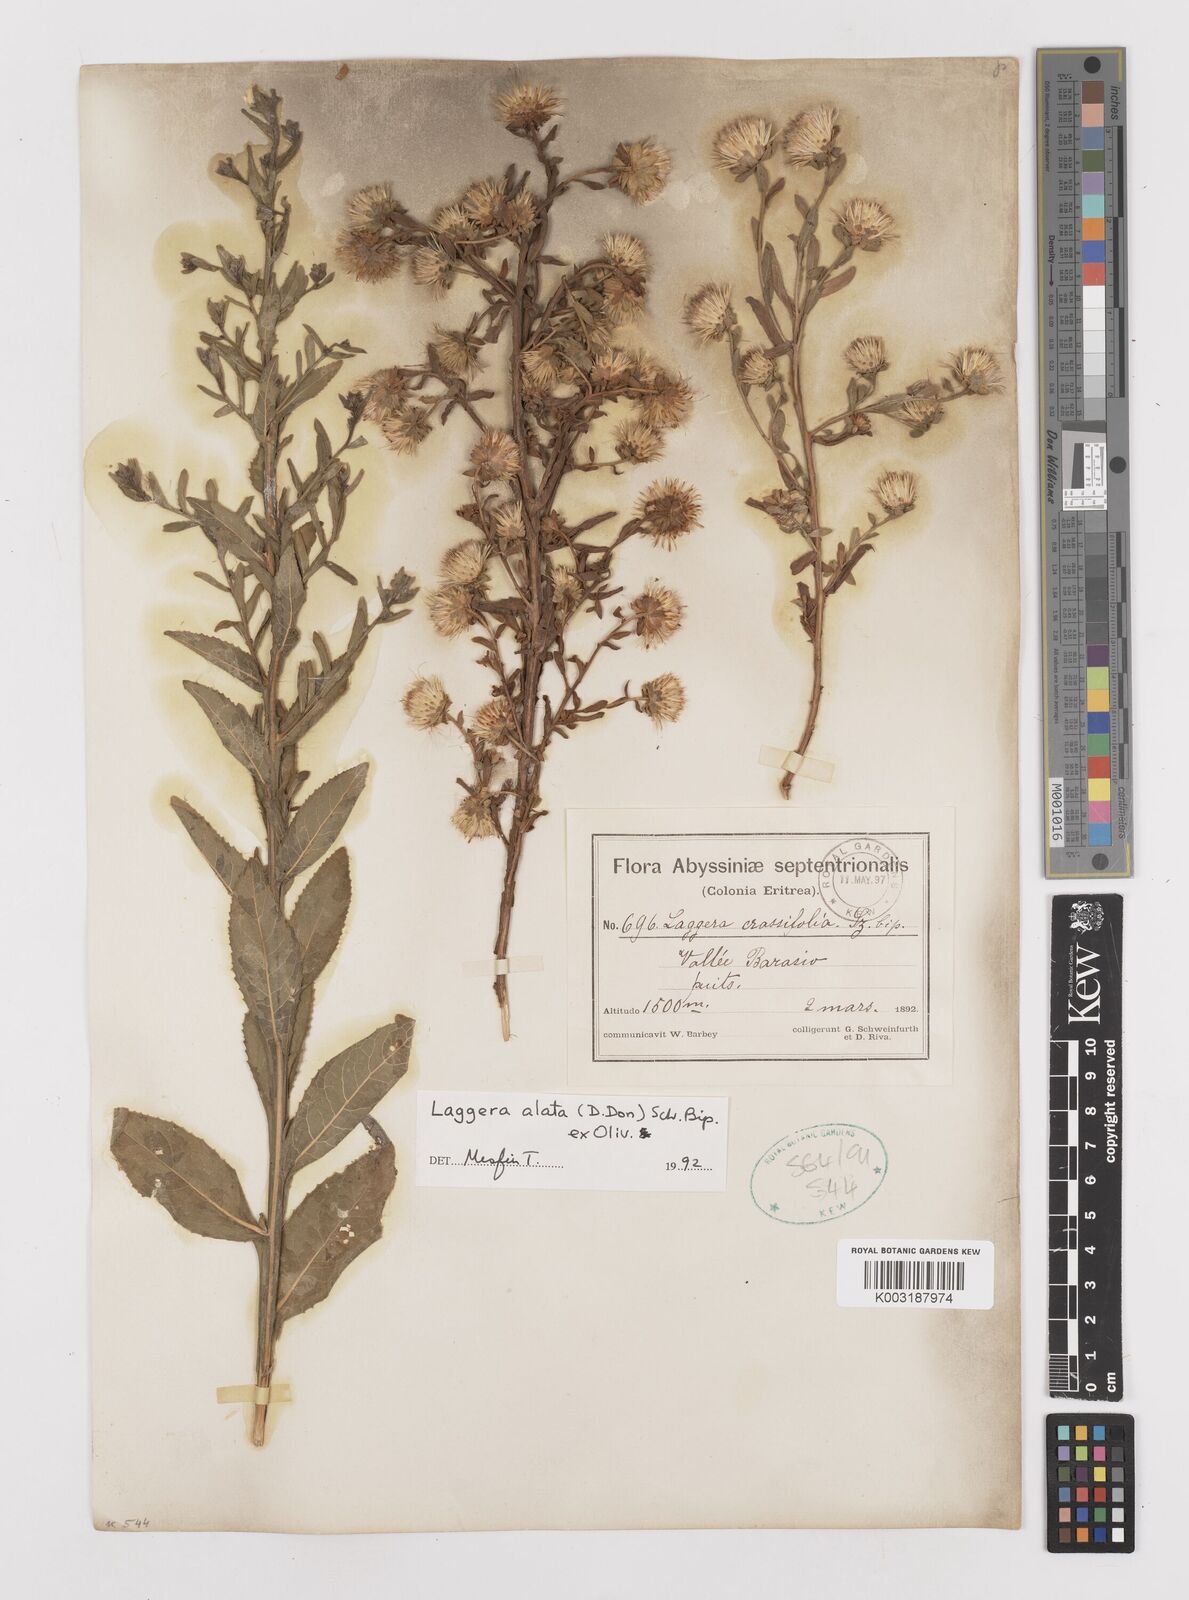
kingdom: Plantae
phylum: Tracheophyta
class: Magnoliopsida
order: Asterales
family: Asteraceae
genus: Laggera
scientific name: Laggera crispata
